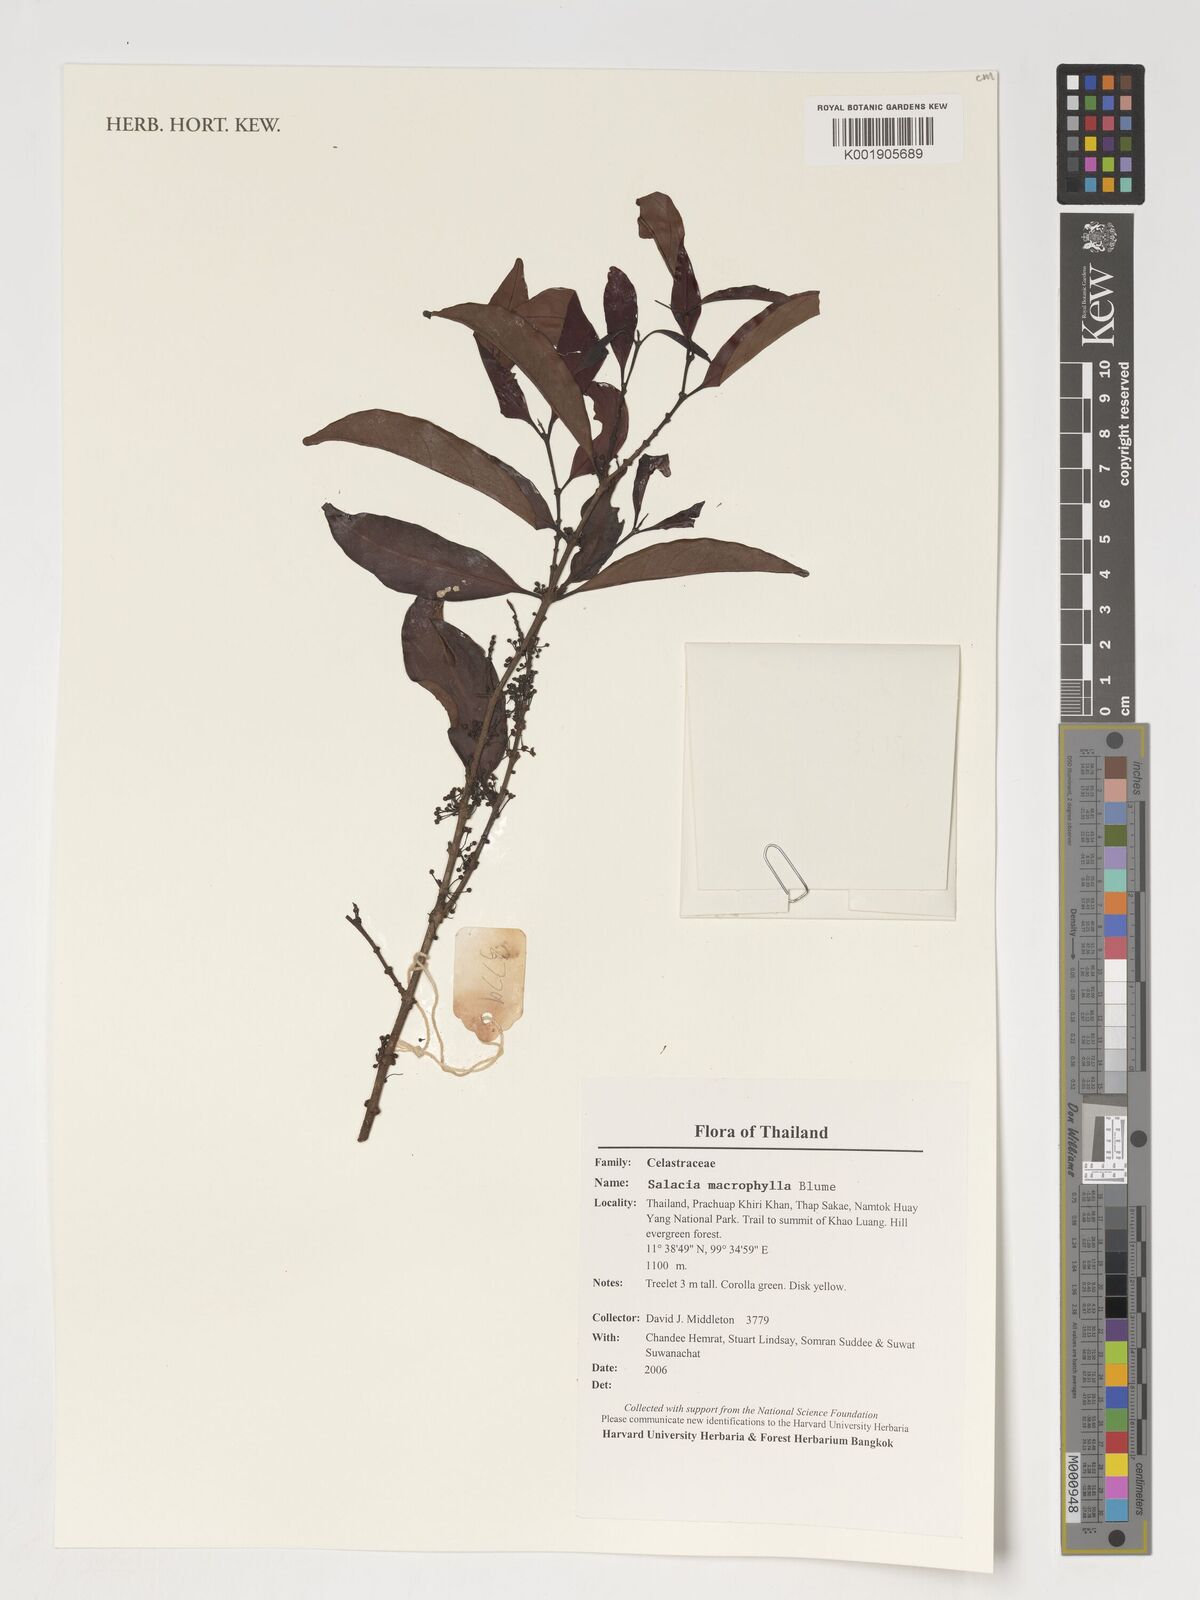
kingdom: Plantae
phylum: Tracheophyta
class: Magnoliopsida
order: Celastrales
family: Celastraceae
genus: Salacia
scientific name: Salacia macrophylla
